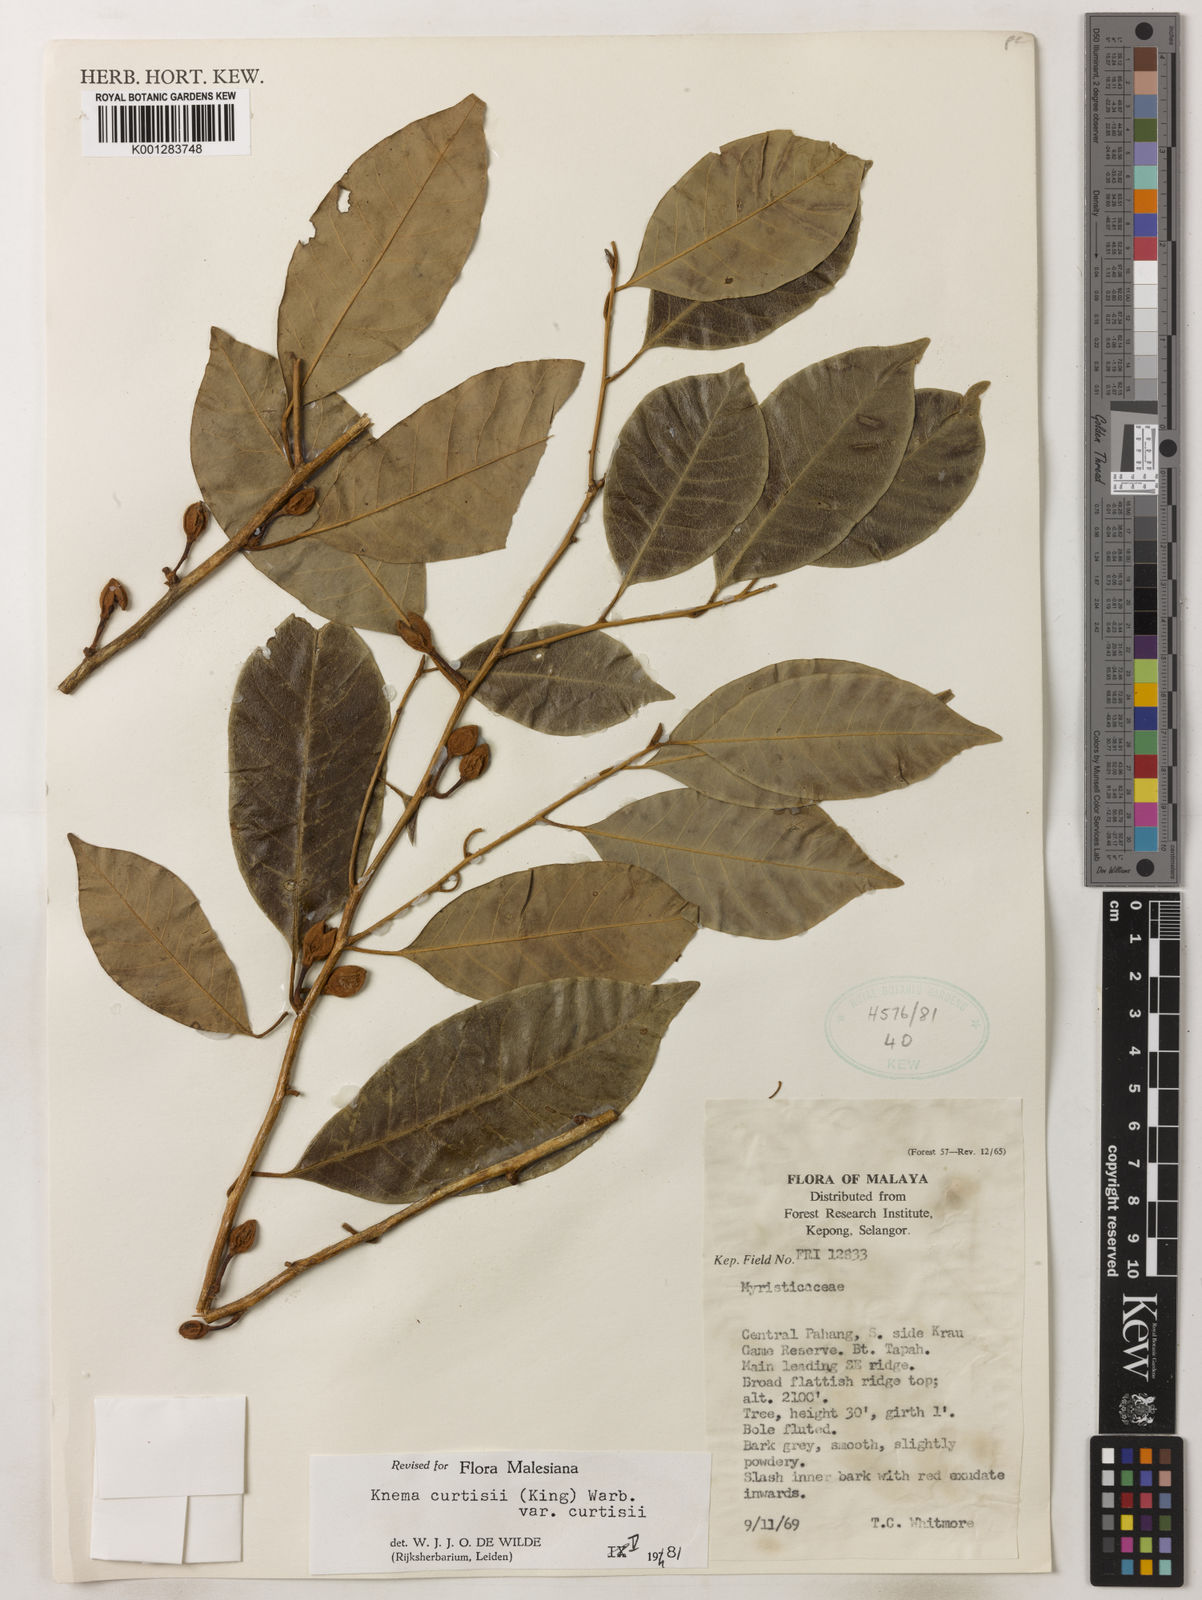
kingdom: Plantae
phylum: Tracheophyta
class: Magnoliopsida
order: Magnoliales
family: Myristicaceae
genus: Knema
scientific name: Knema curtisii
